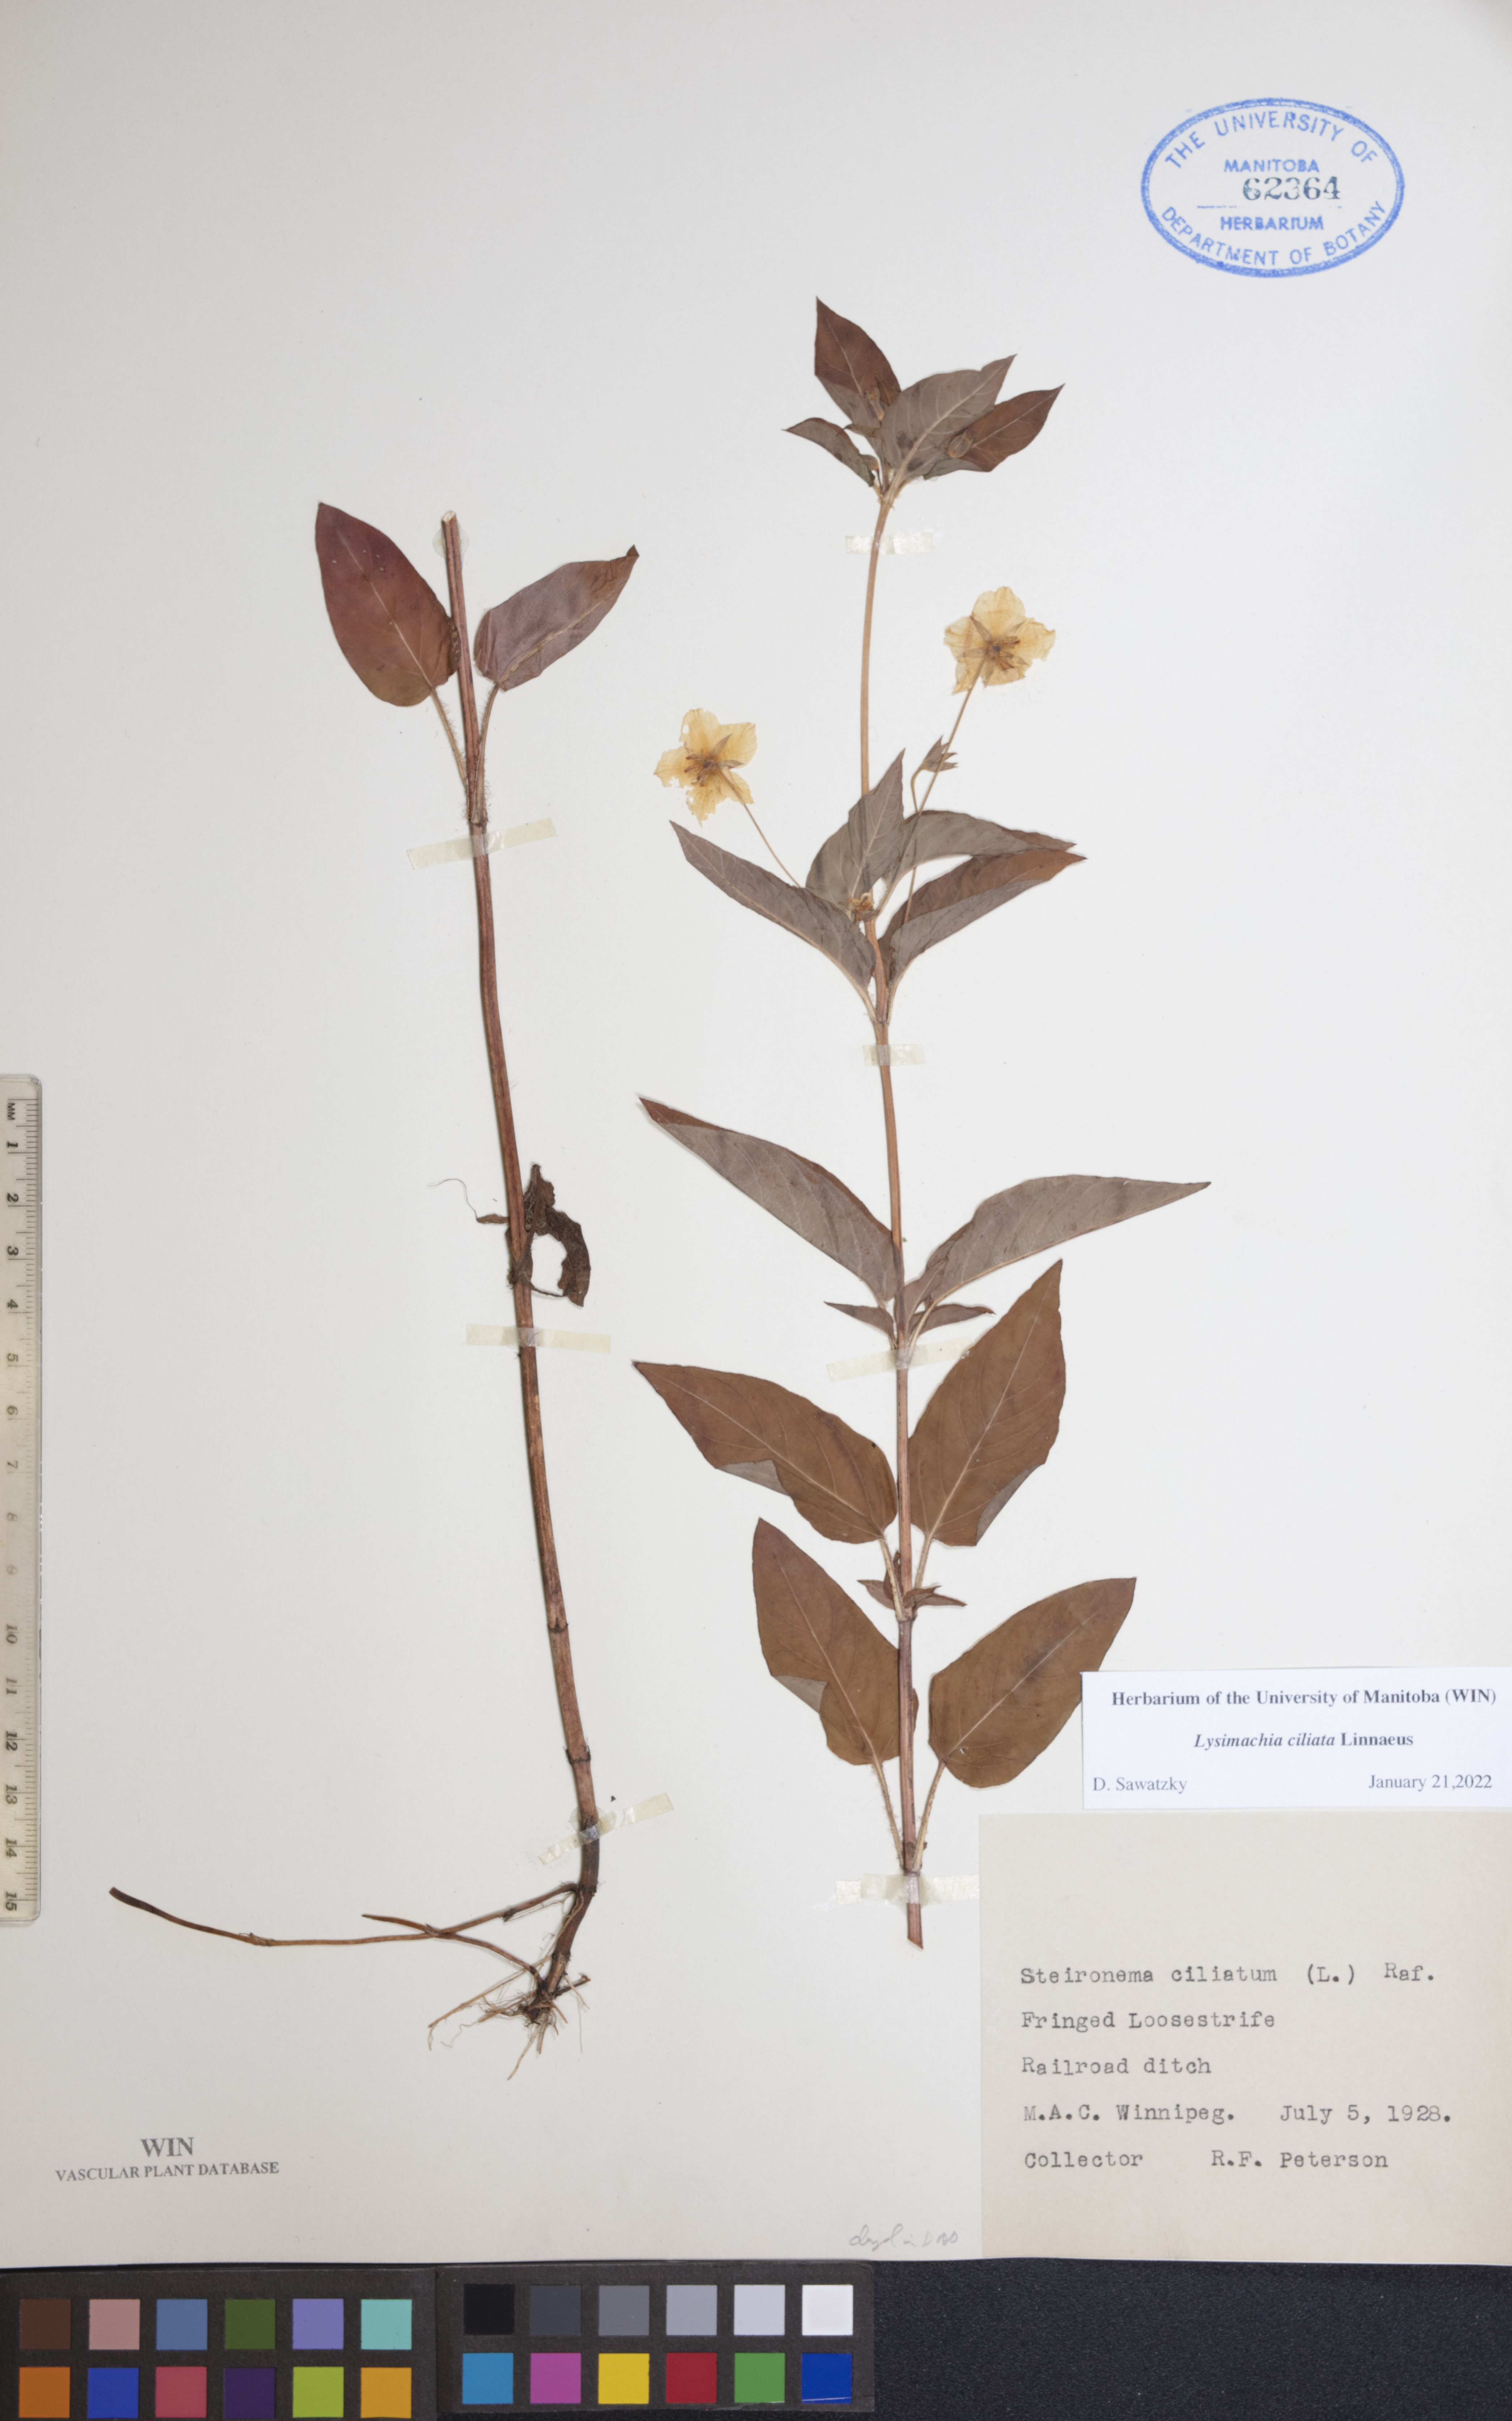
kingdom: Plantae
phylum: Tracheophyta
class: Magnoliopsida
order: Ericales
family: Primulaceae
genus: Lysimachia
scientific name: Lysimachia ciliata
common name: Fringed loosestrife
